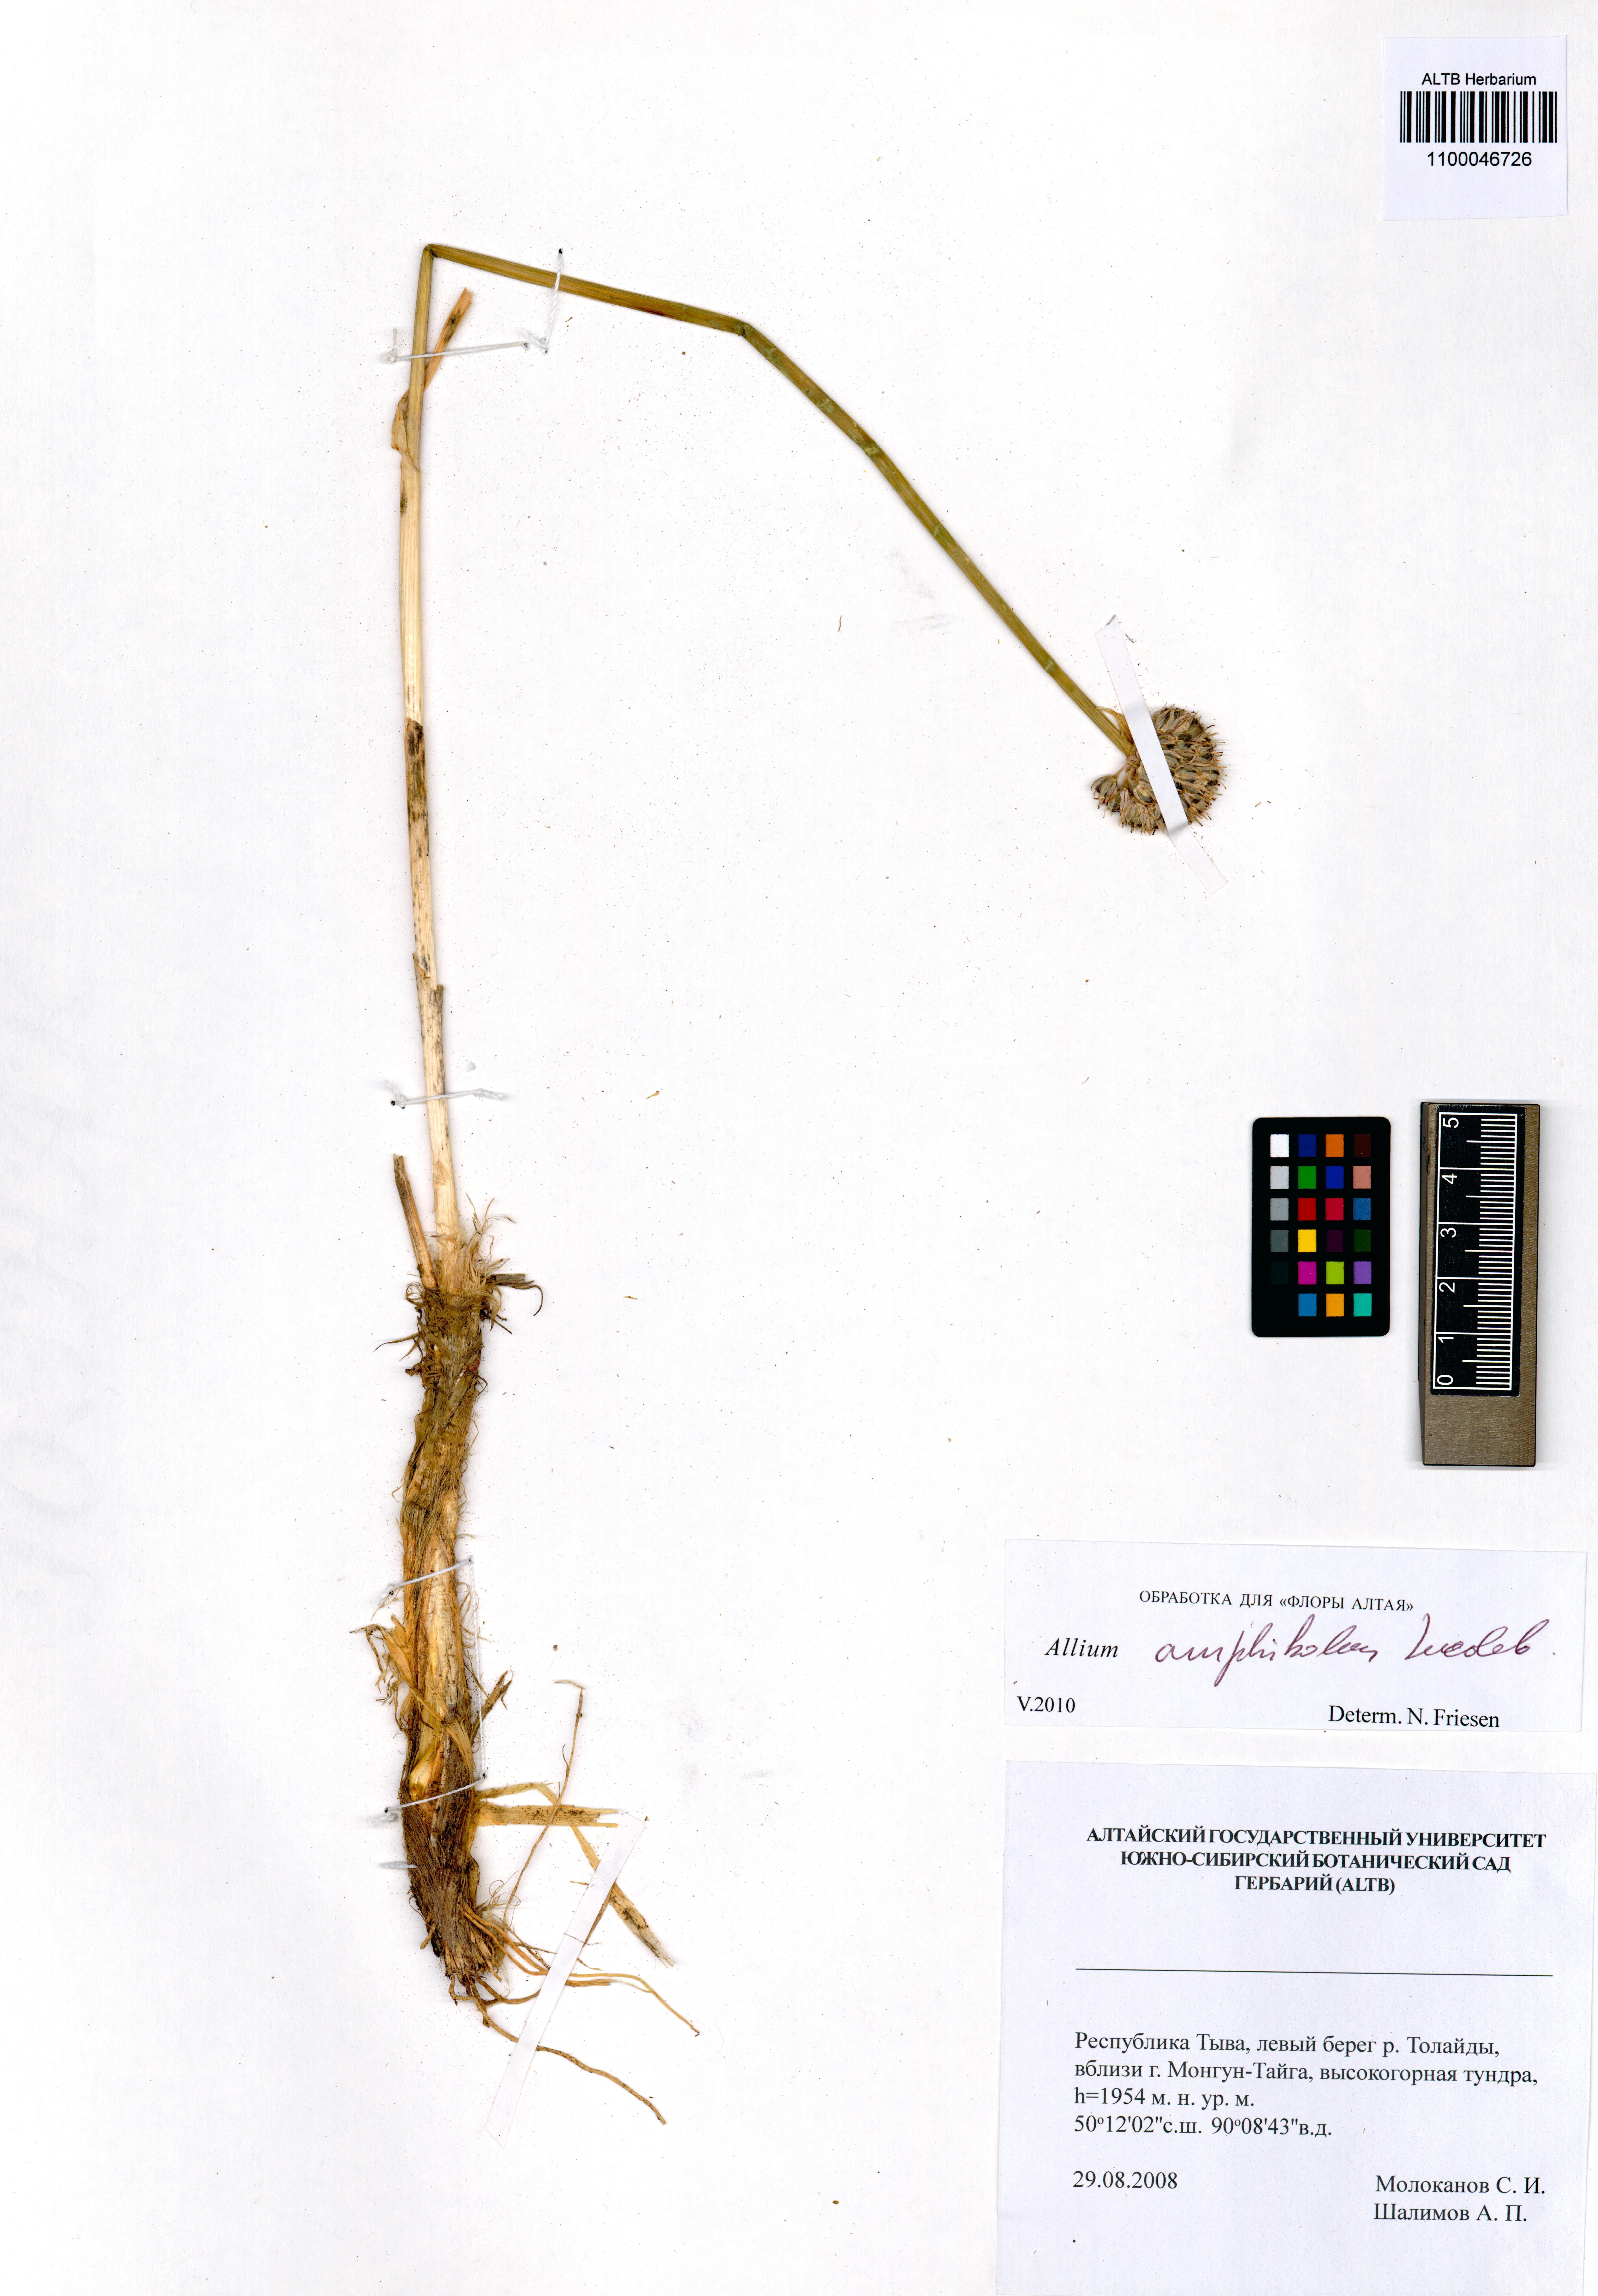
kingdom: Plantae
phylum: Tracheophyta
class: Liliopsida
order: Asparagales
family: Amaryllidaceae
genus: Allium
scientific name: Allium amphibolum
